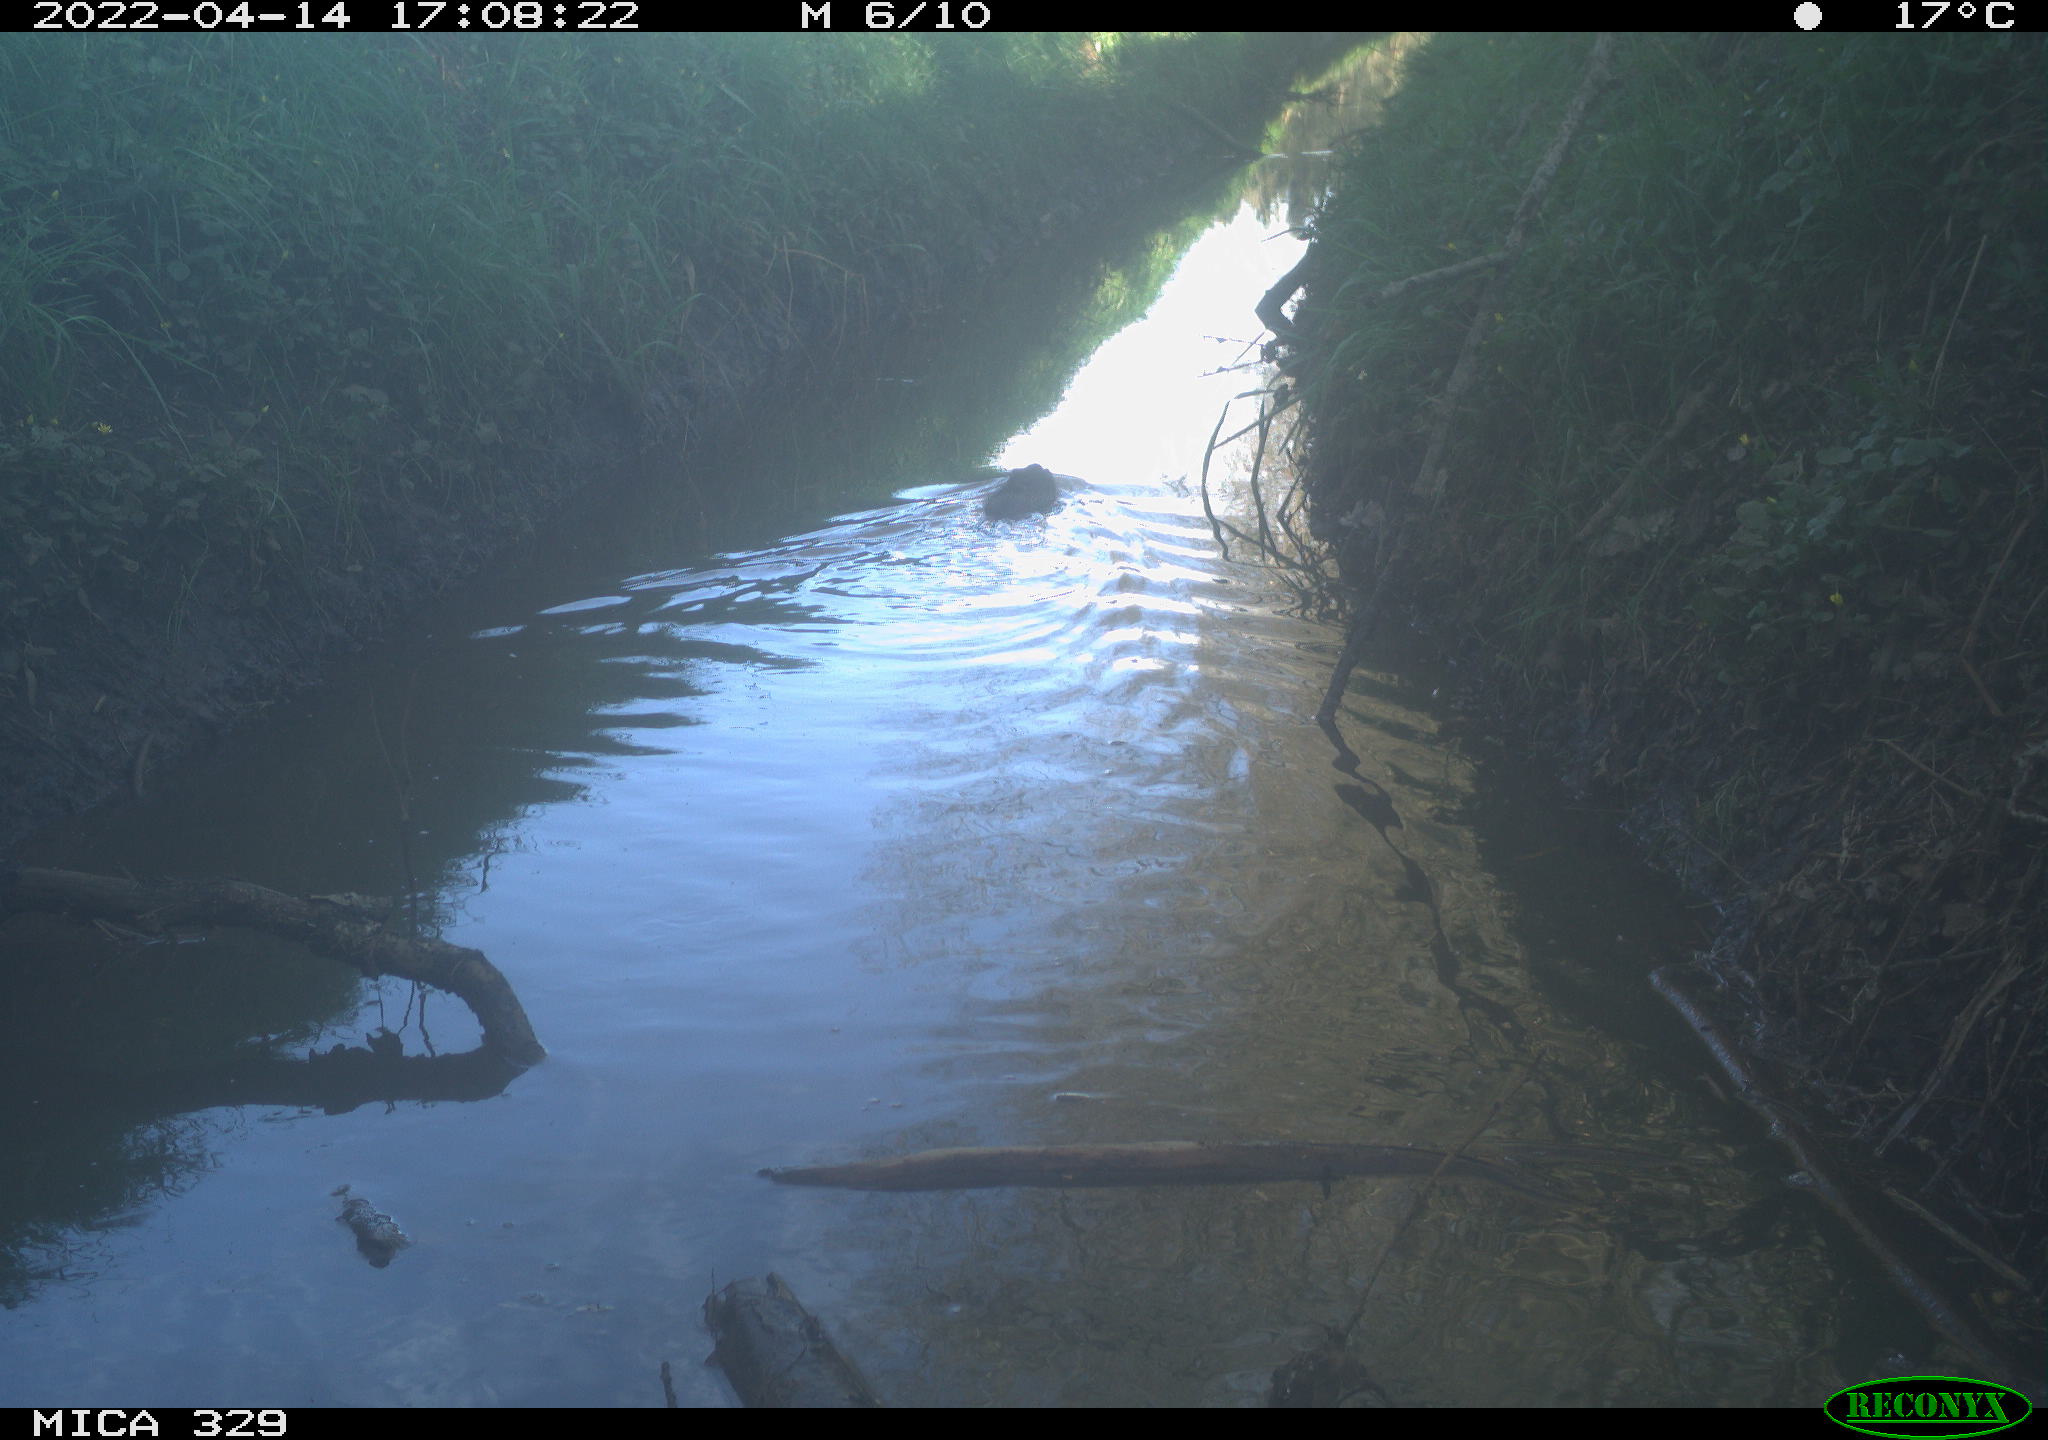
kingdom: Animalia
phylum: Chordata
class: Mammalia
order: Rodentia
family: Cricetidae
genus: Ondatra
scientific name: Ondatra zibethicus
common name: Muskrat
